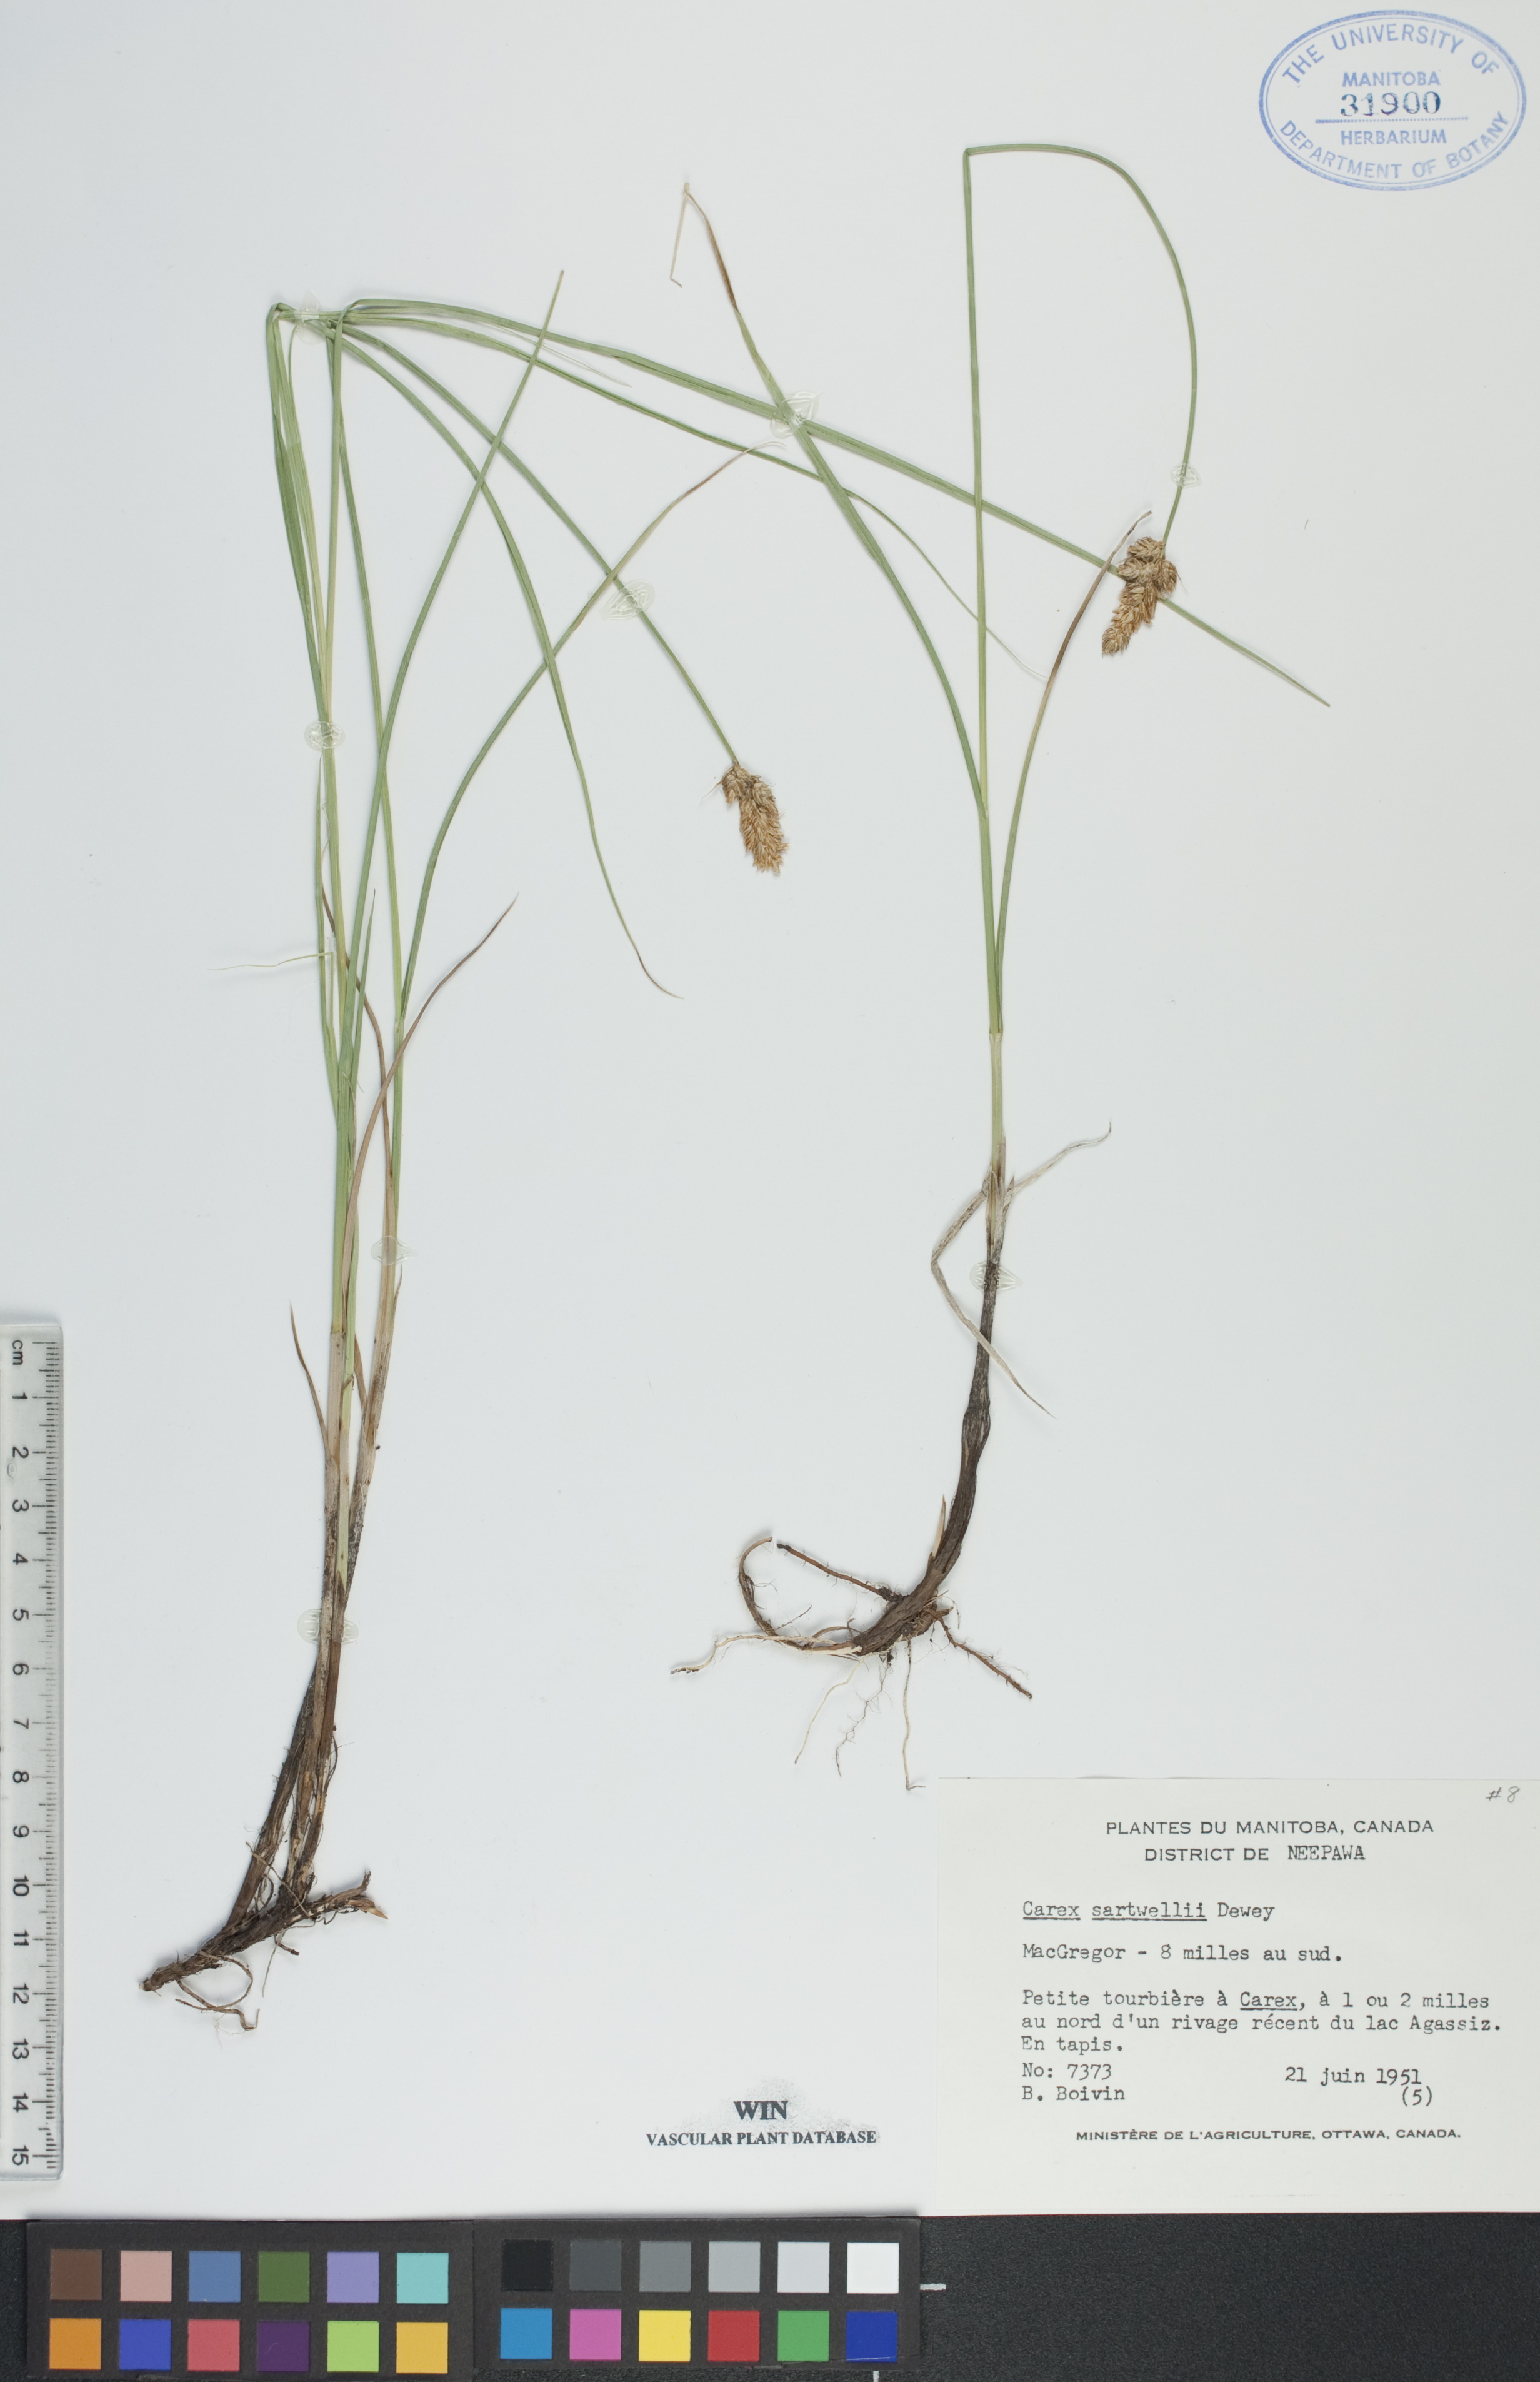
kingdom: Plantae
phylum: Tracheophyta
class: Liliopsida
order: Poales
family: Cyperaceae
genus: Carex
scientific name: Carex sartwellii
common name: Sartwell's sedge
